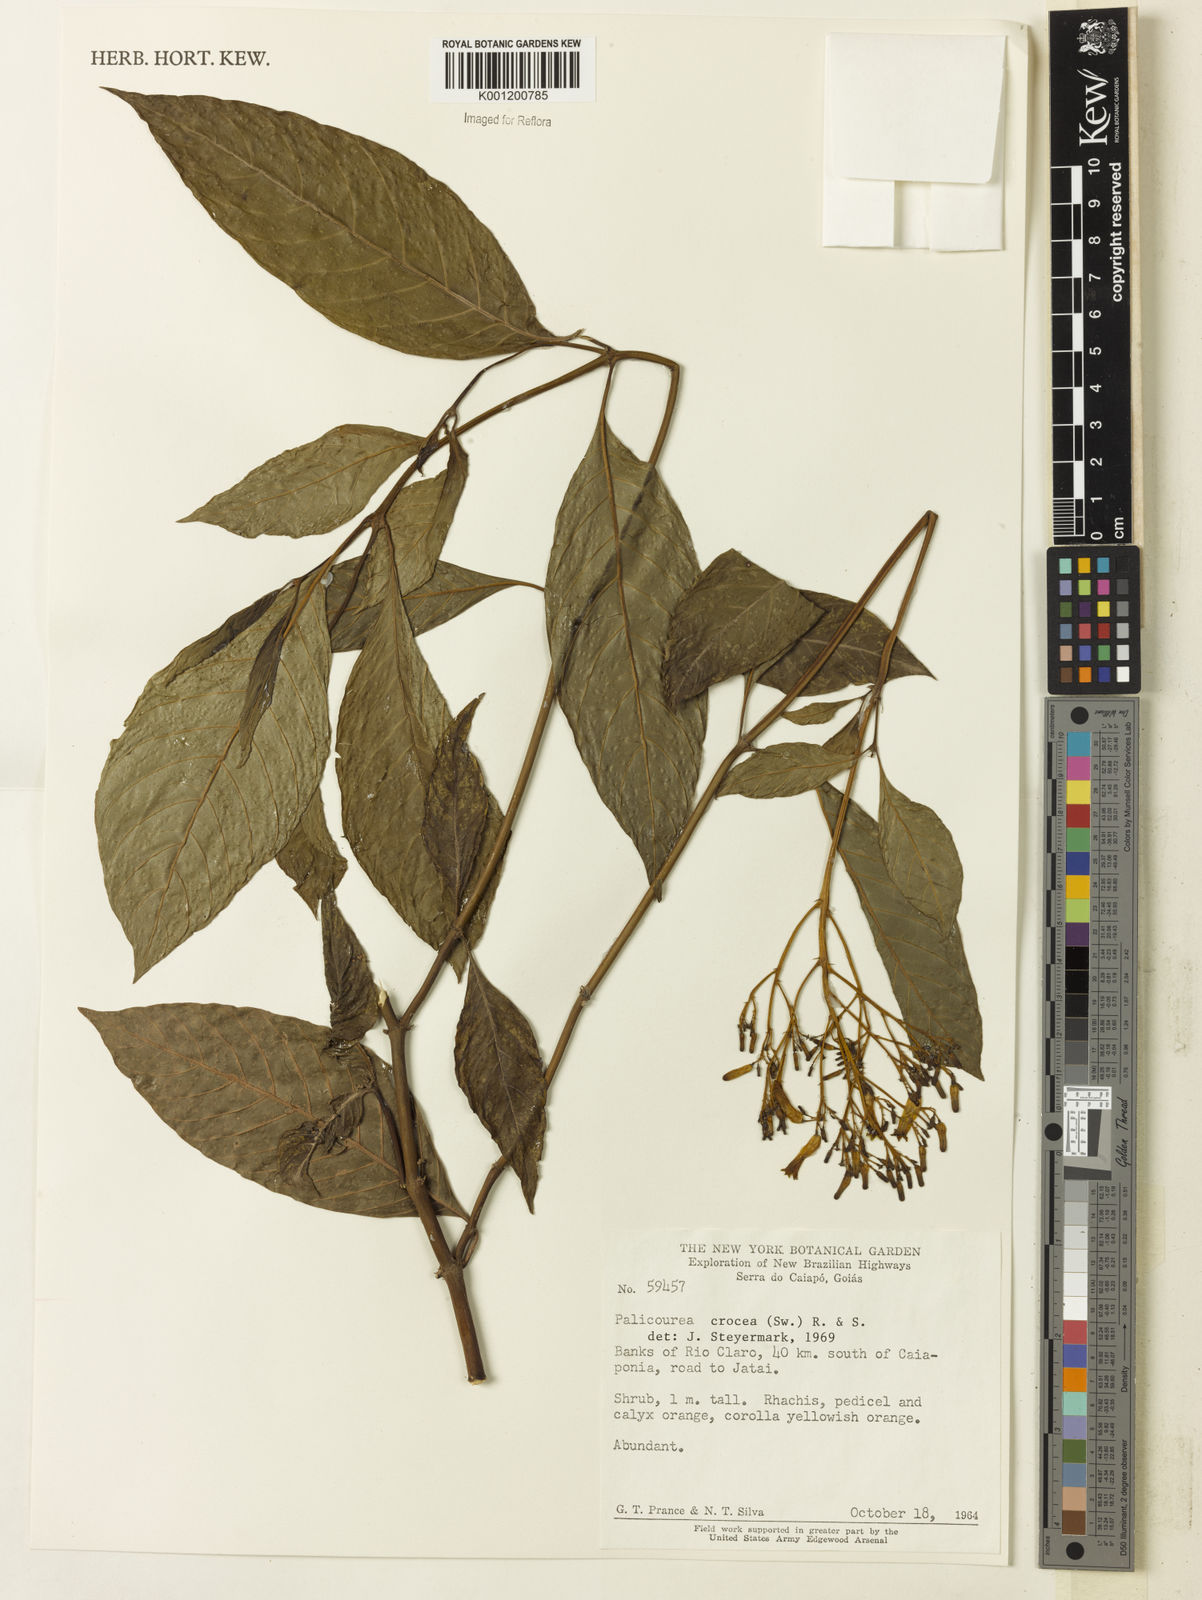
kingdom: Plantae
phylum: Tracheophyta
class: Magnoliopsida
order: Gentianales
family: Rubiaceae
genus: Palicourea
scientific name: Palicourea crocea
